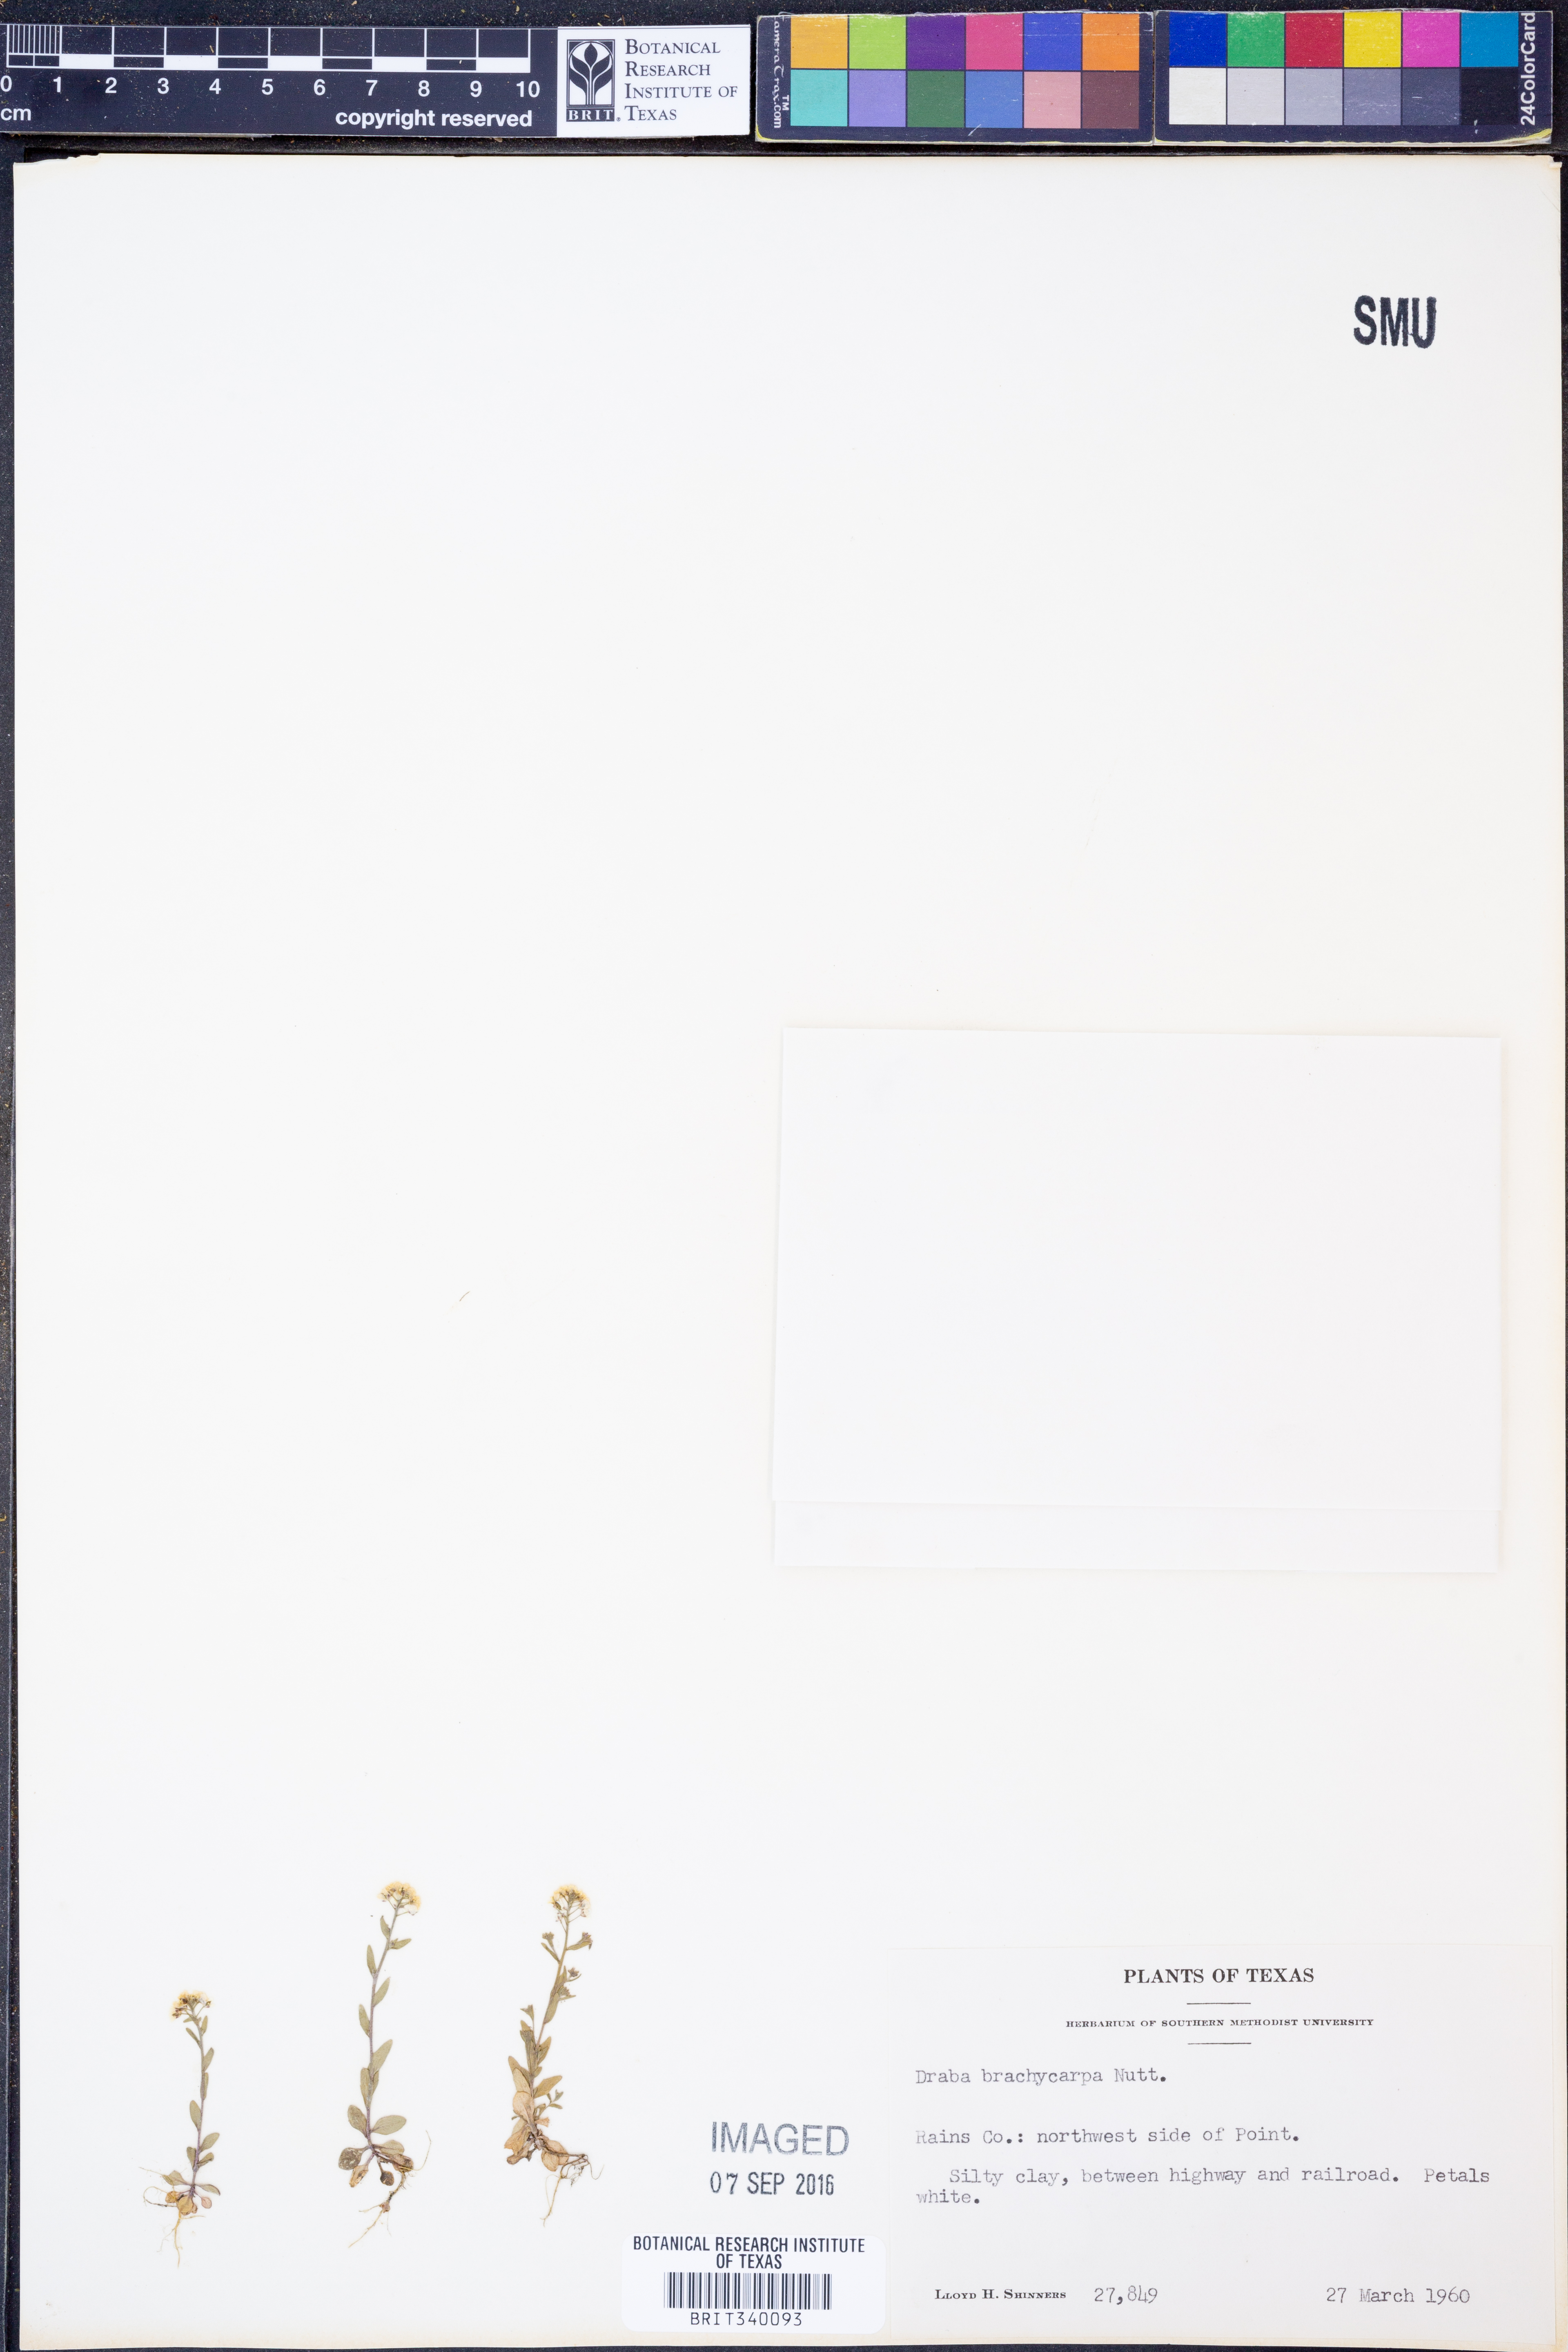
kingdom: Plantae
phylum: Tracheophyta
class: Magnoliopsida
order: Brassicales
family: Brassicaceae
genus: Abdra
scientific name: Abdra brachycarpa
